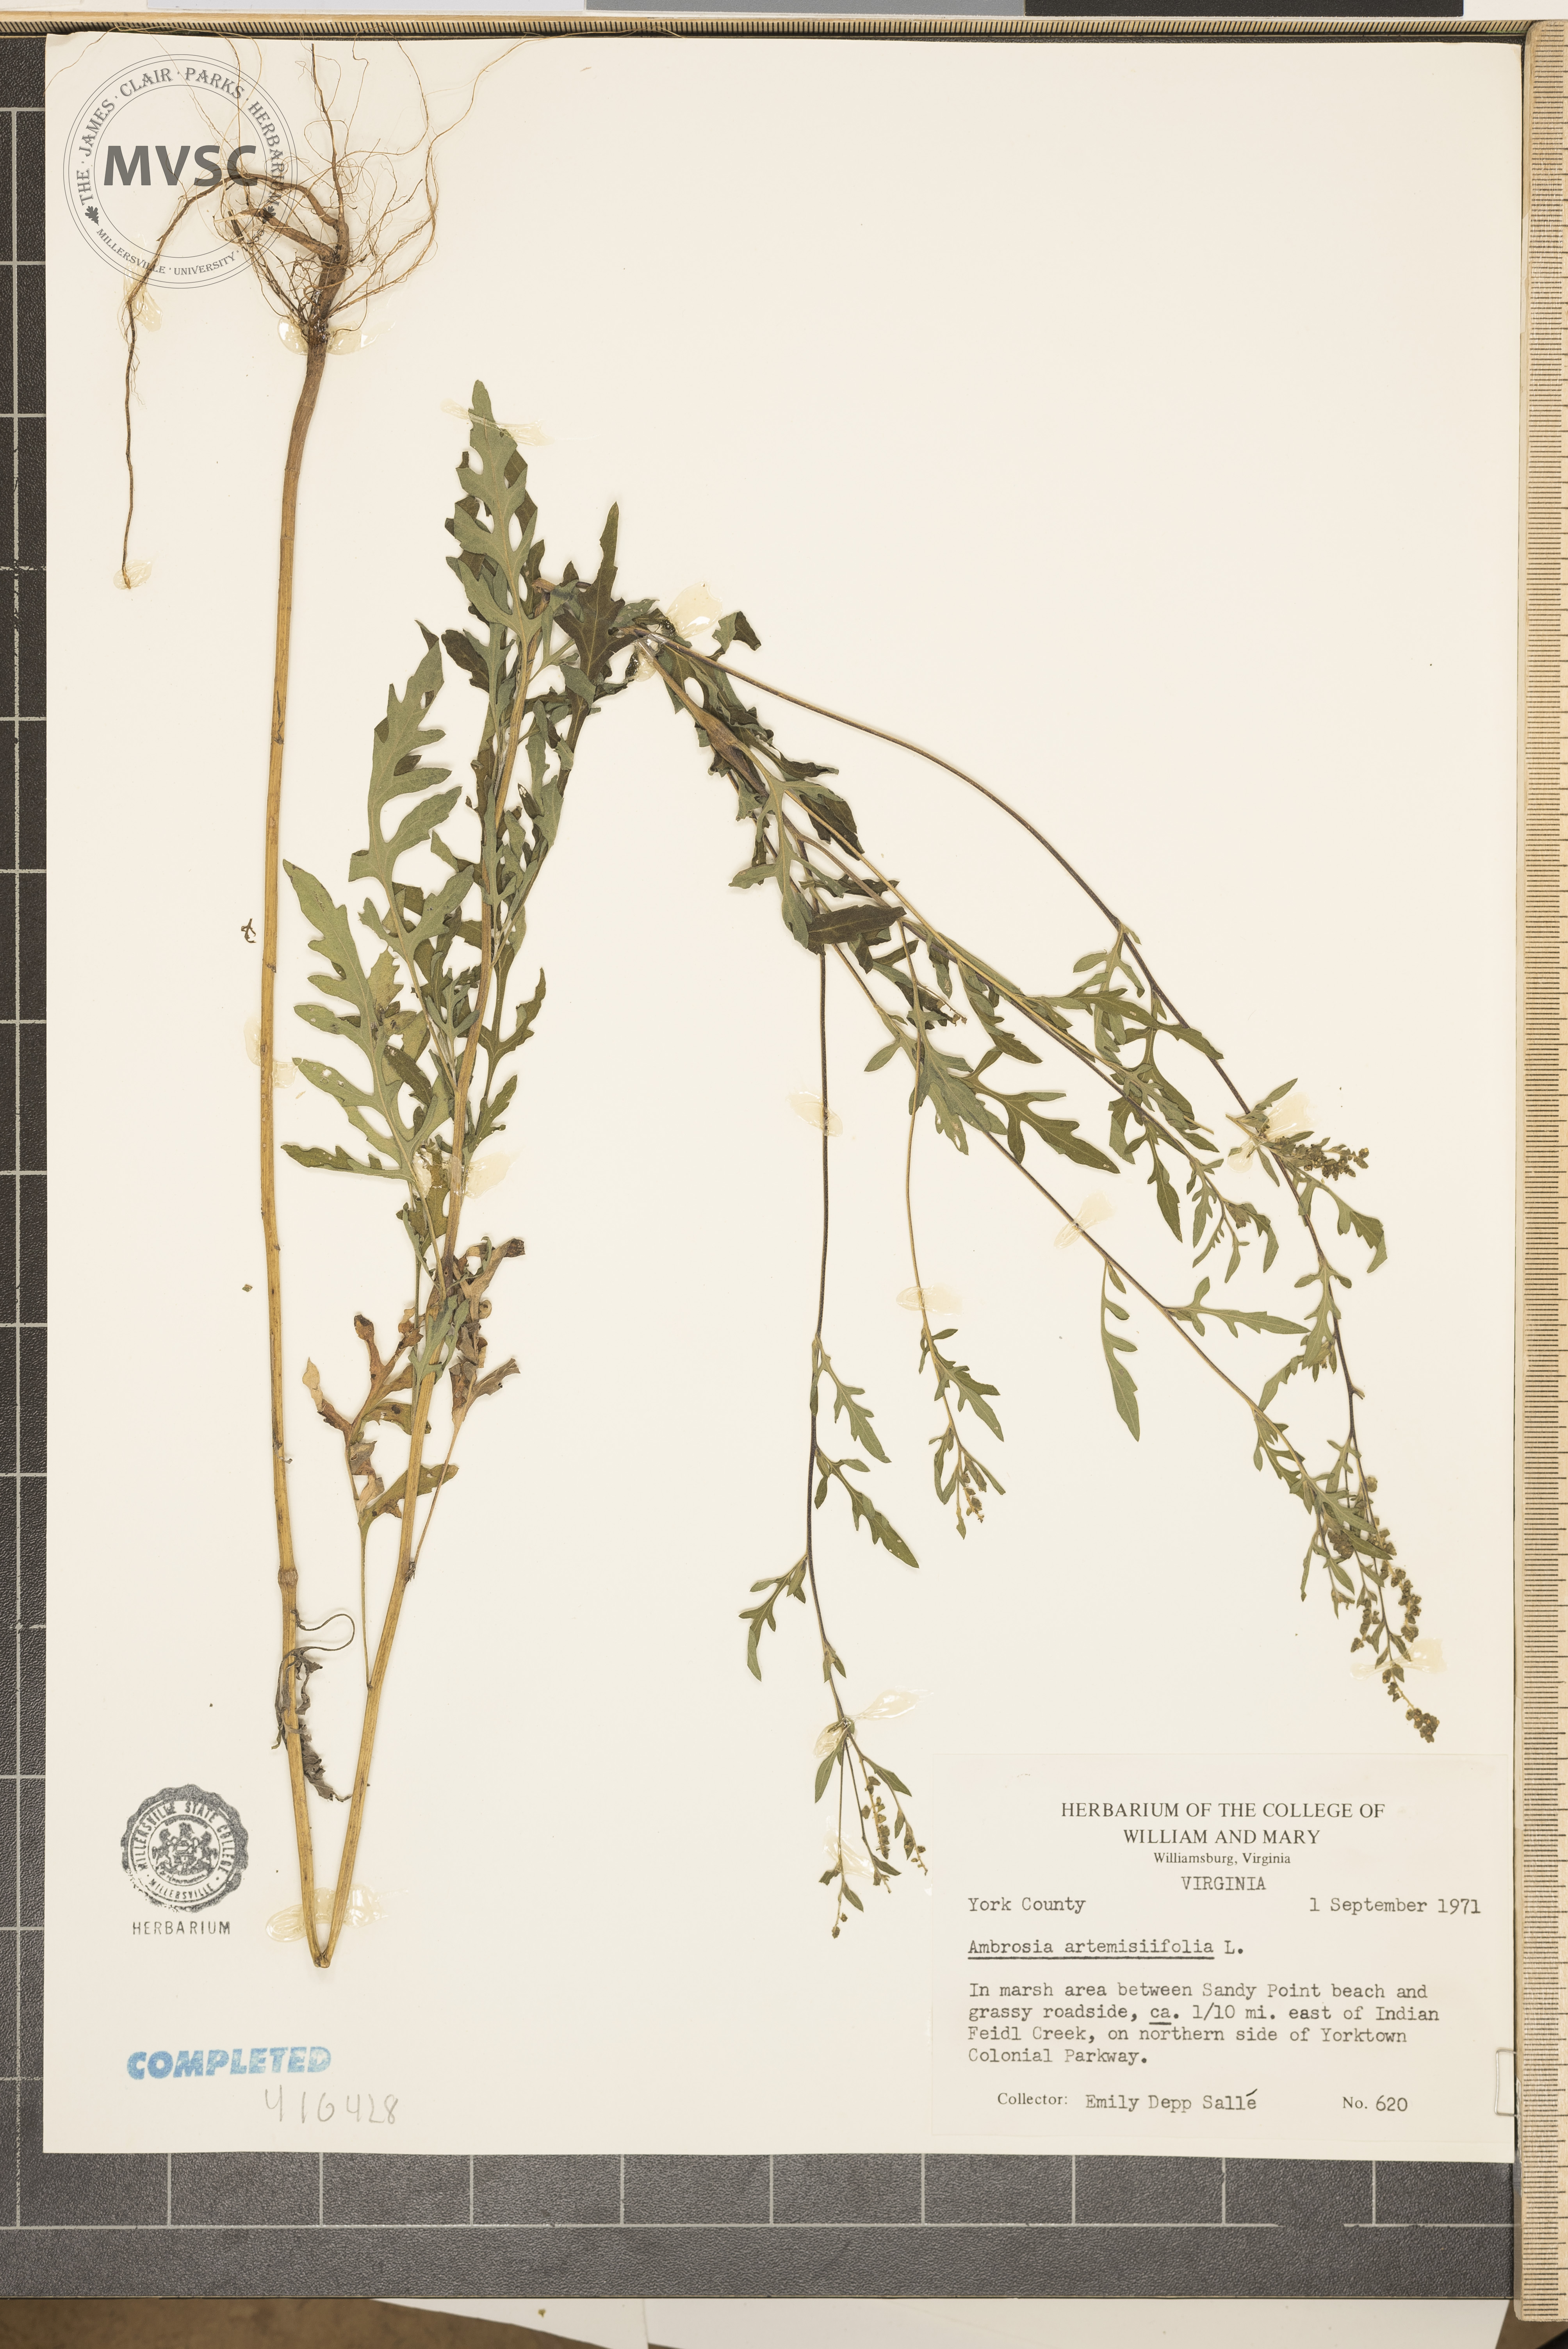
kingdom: Plantae
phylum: Tracheophyta
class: Magnoliopsida
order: Asterales
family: Asteraceae
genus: Ambrosia
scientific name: Ambrosia artemisiifolia
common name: Annual ragweed
